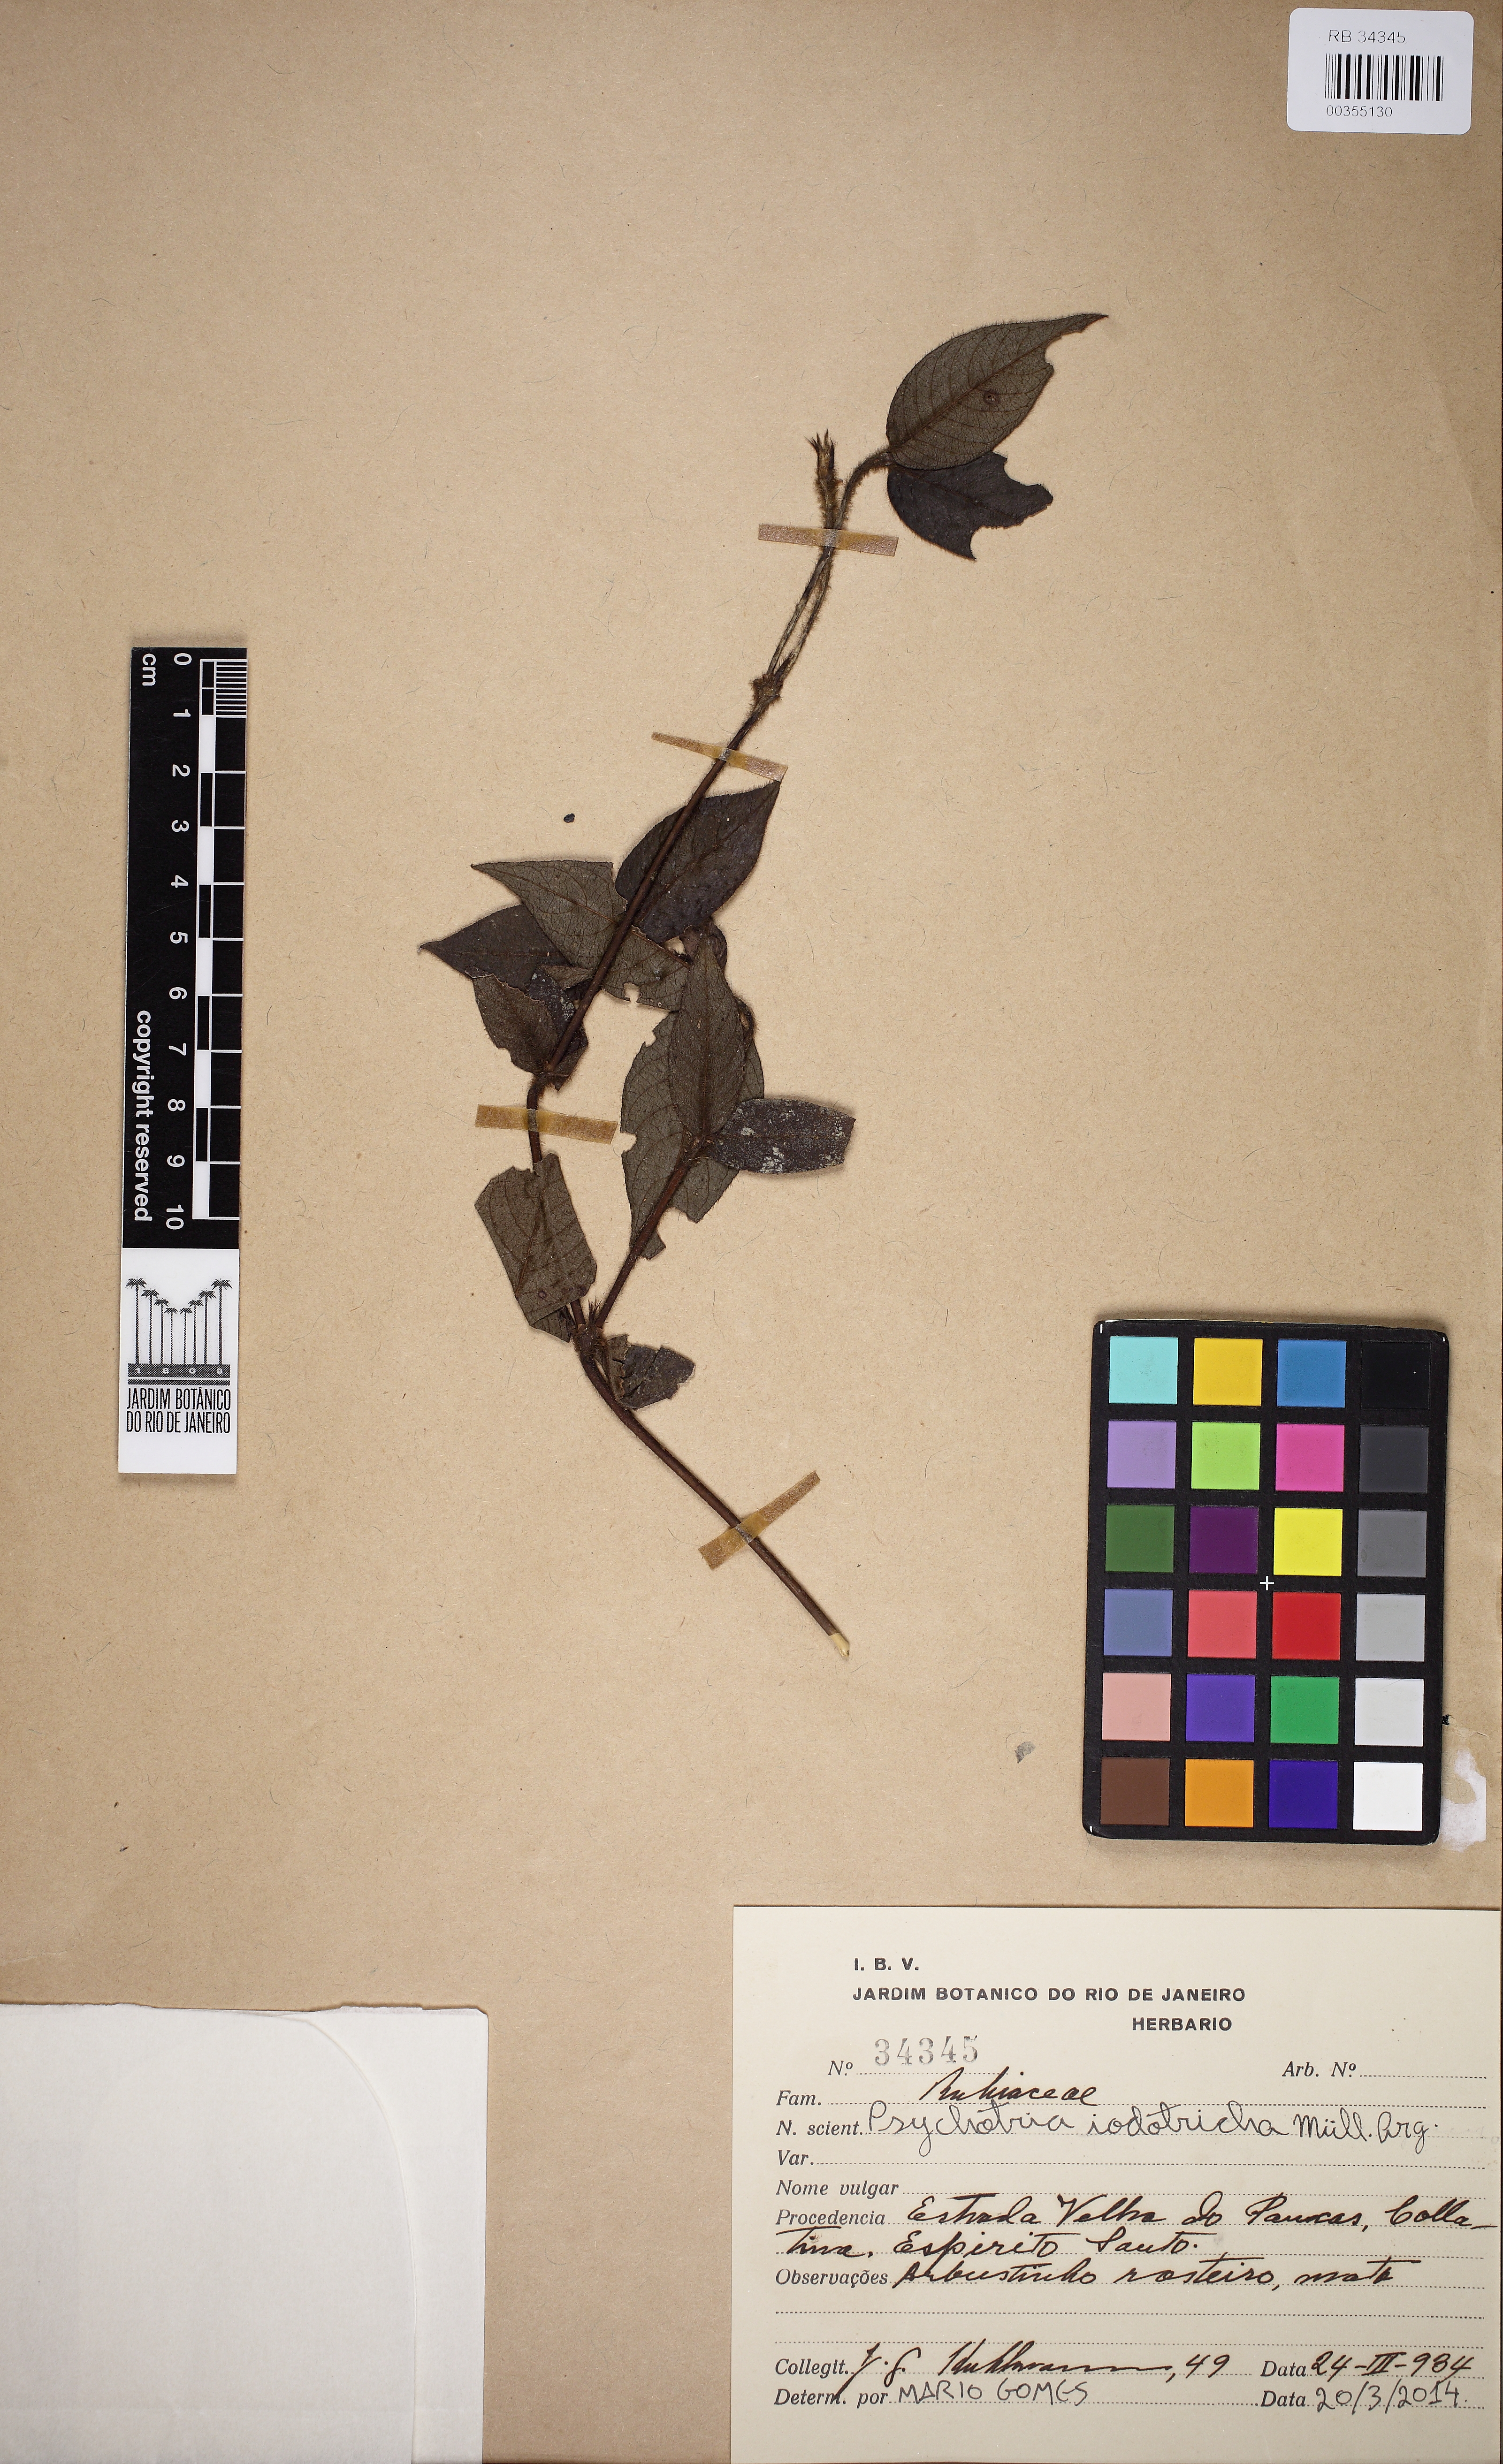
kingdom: Plantae
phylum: Tracheophyta
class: Magnoliopsida
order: Gentianales
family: Rubiaceae
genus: Palicourea
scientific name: Palicourea iodotricha
